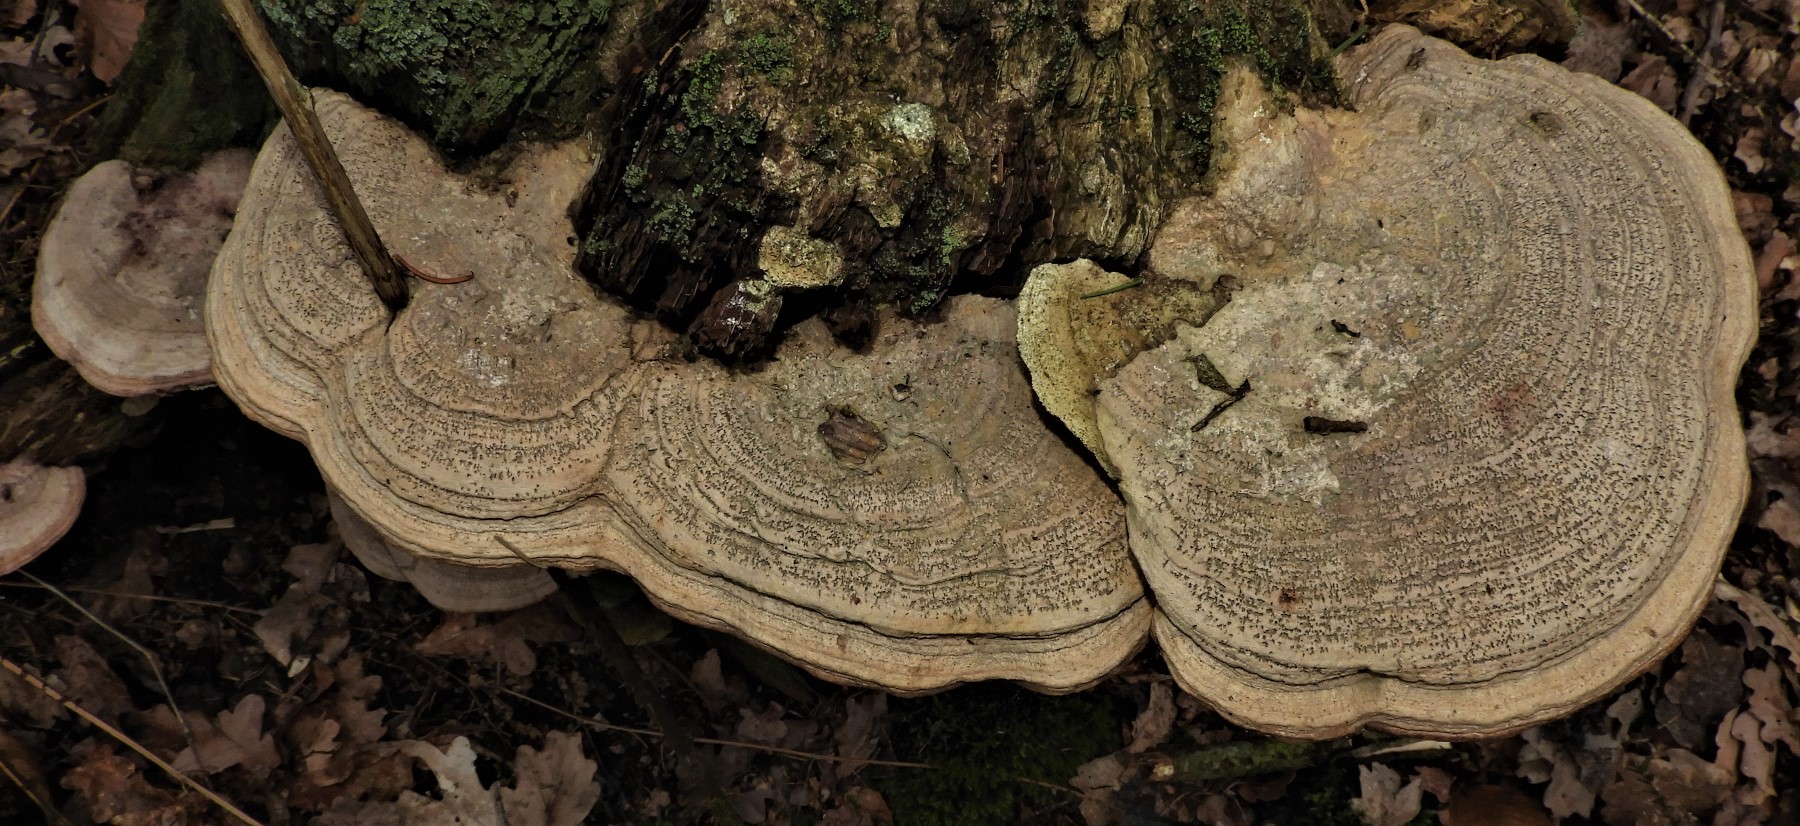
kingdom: Fungi
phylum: Basidiomycota
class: Agaricomycetes
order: Polyporales
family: Fomitopsidaceae
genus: Daedalea
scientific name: Daedalea quercina
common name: ege-labyrintsvamp
